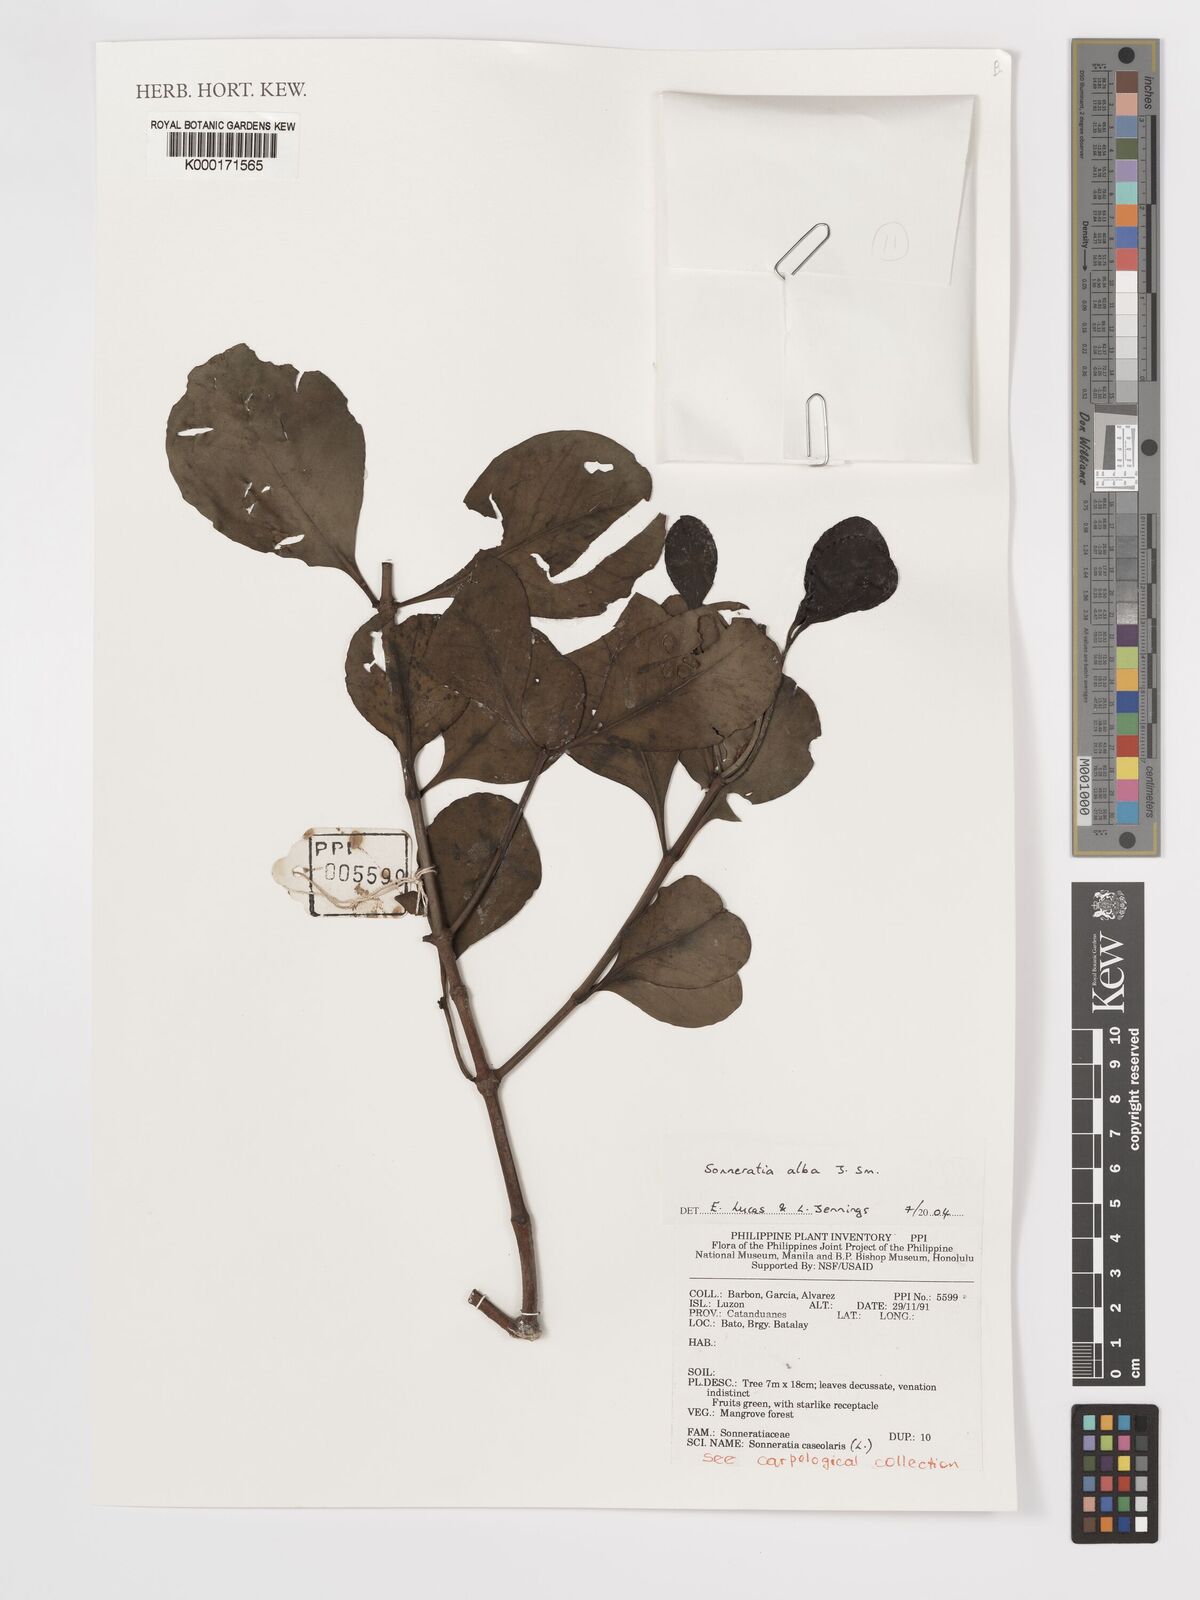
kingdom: Plantae
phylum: Tracheophyta
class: Magnoliopsida
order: Myrtales
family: Lythraceae
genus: Sonneratia
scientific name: Sonneratia alba
